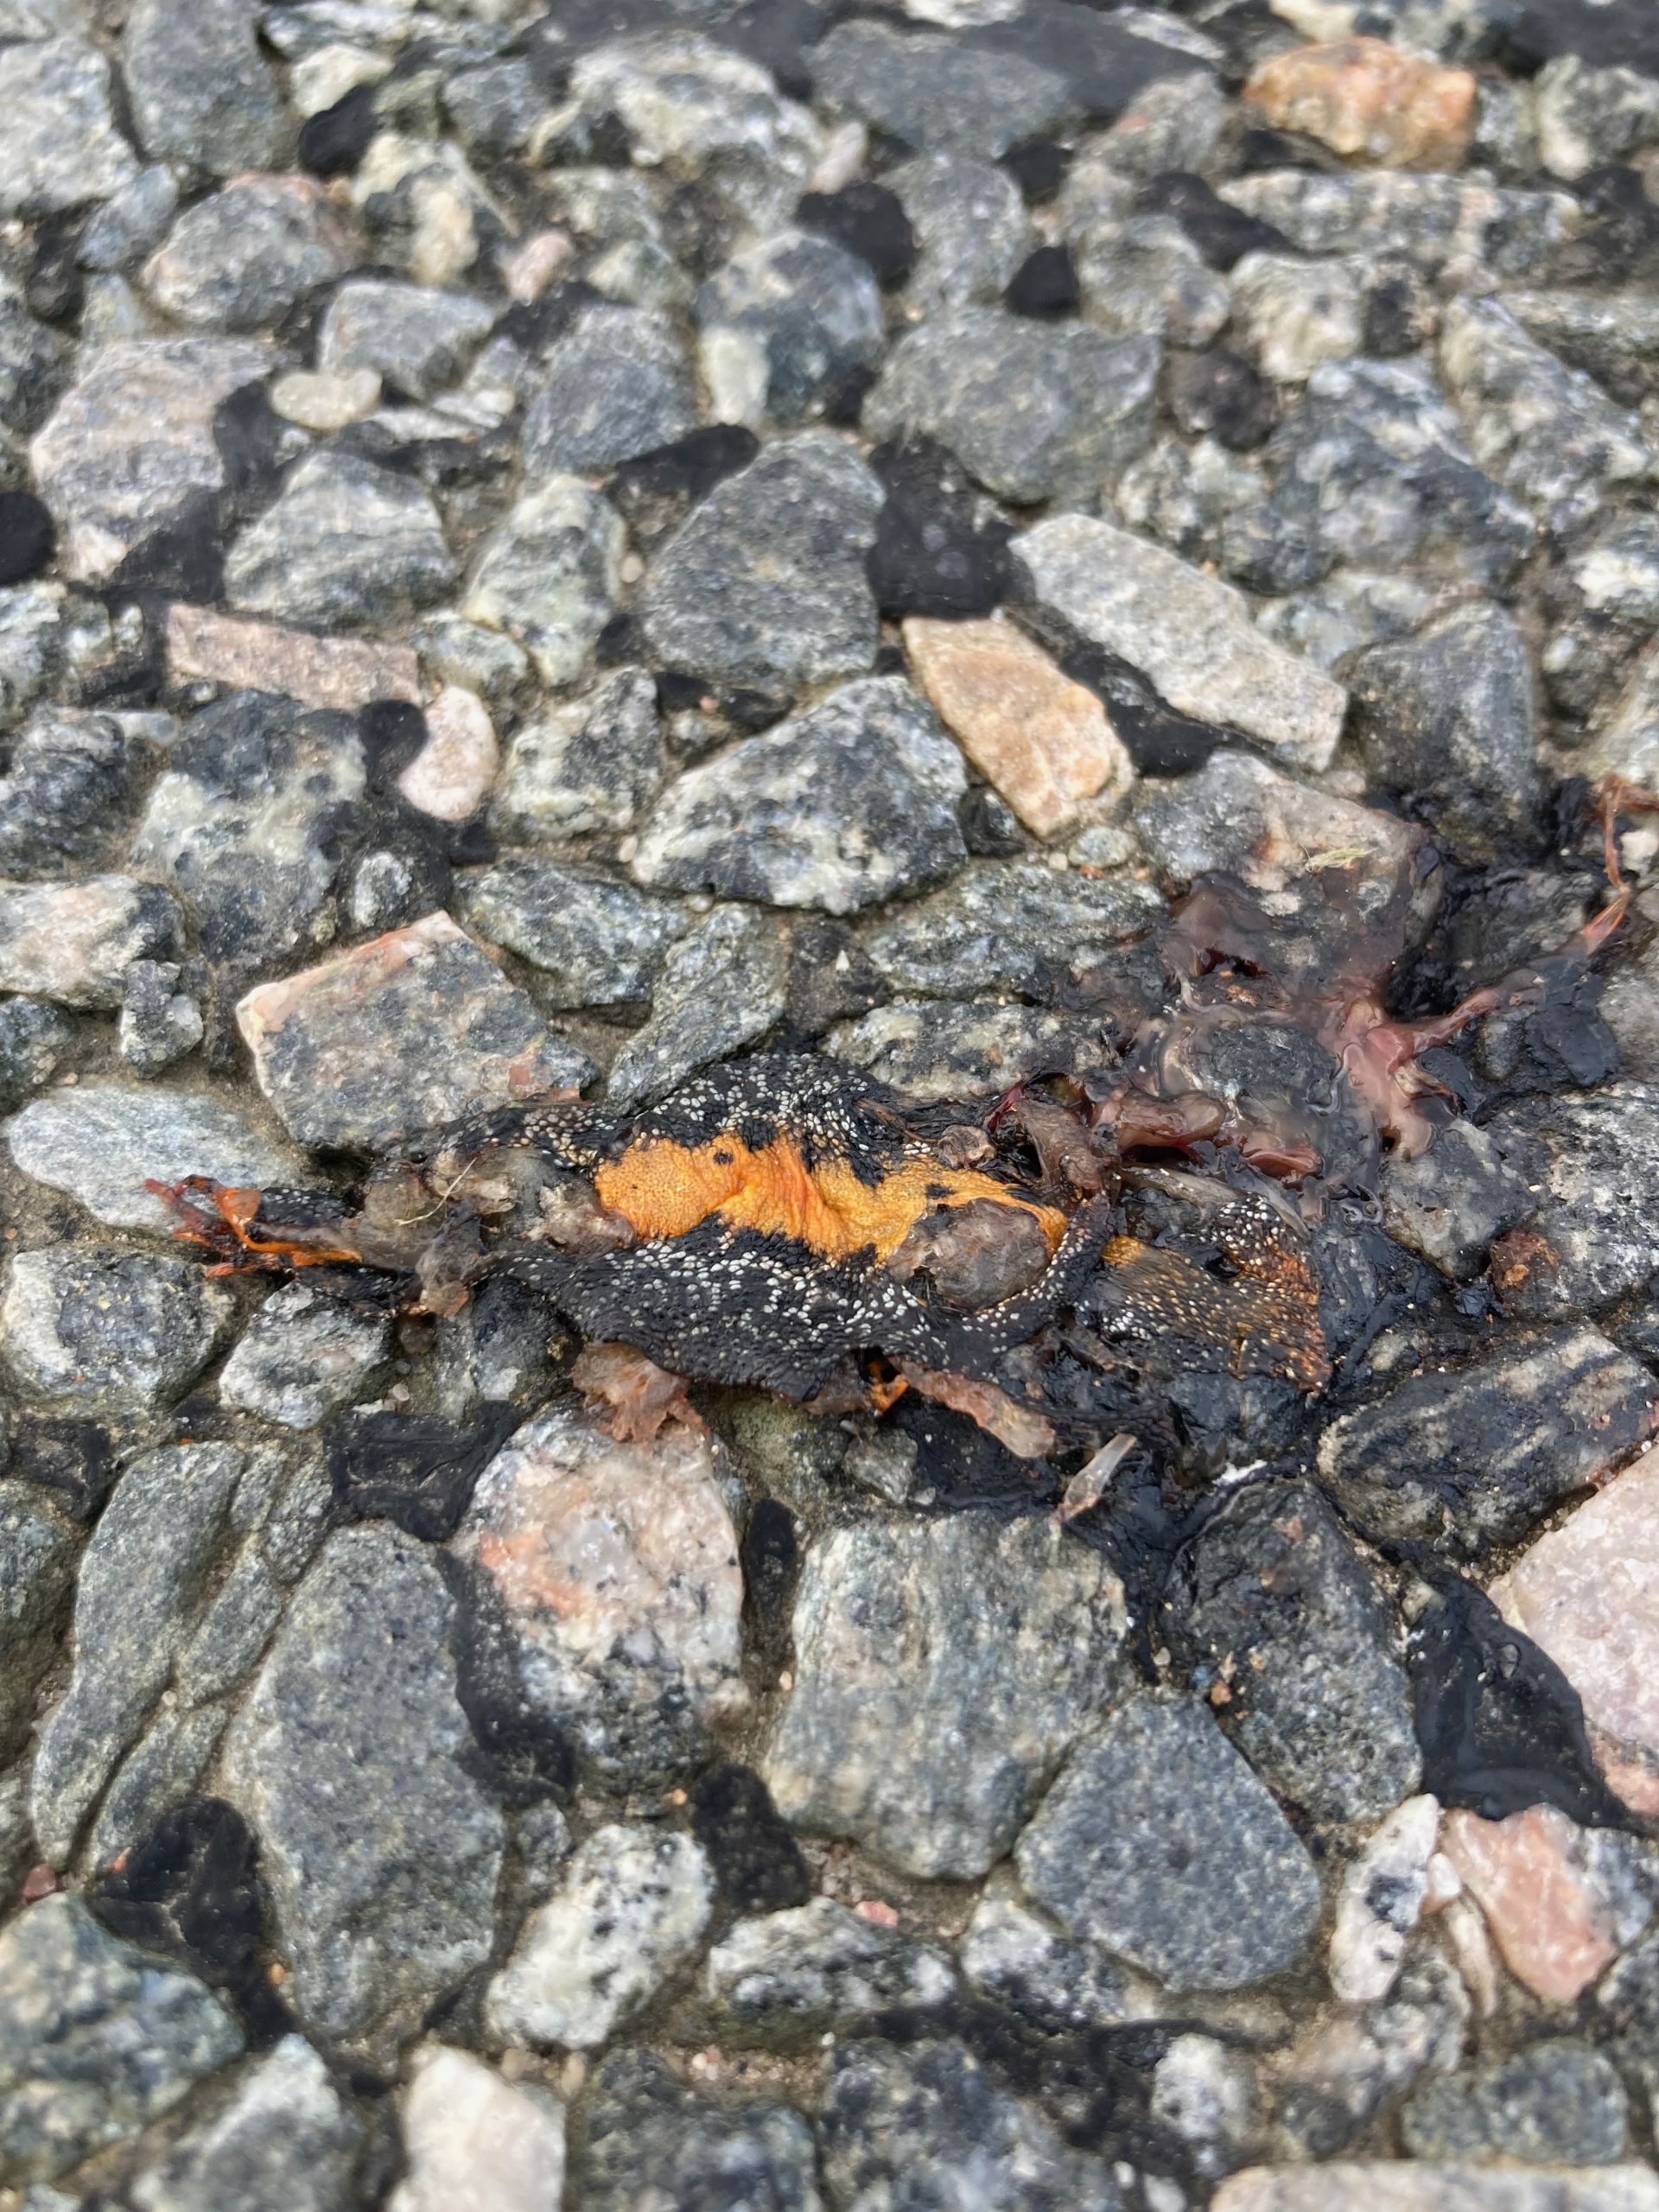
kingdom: Animalia
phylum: Chordata
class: Amphibia
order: Caudata
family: Salamandridae
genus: Triturus
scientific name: Triturus cristatus
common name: Stor vandsalamander
